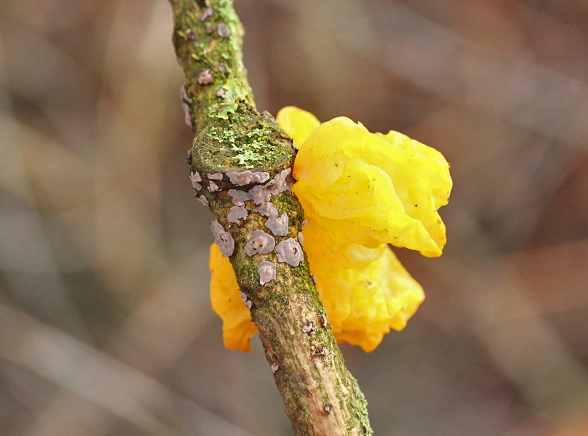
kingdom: Fungi
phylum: Basidiomycota
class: Agaricomycetes
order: Russulales
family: Peniophoraceae
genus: Peniophora
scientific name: Peniophora quercina
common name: ege-voksskind
